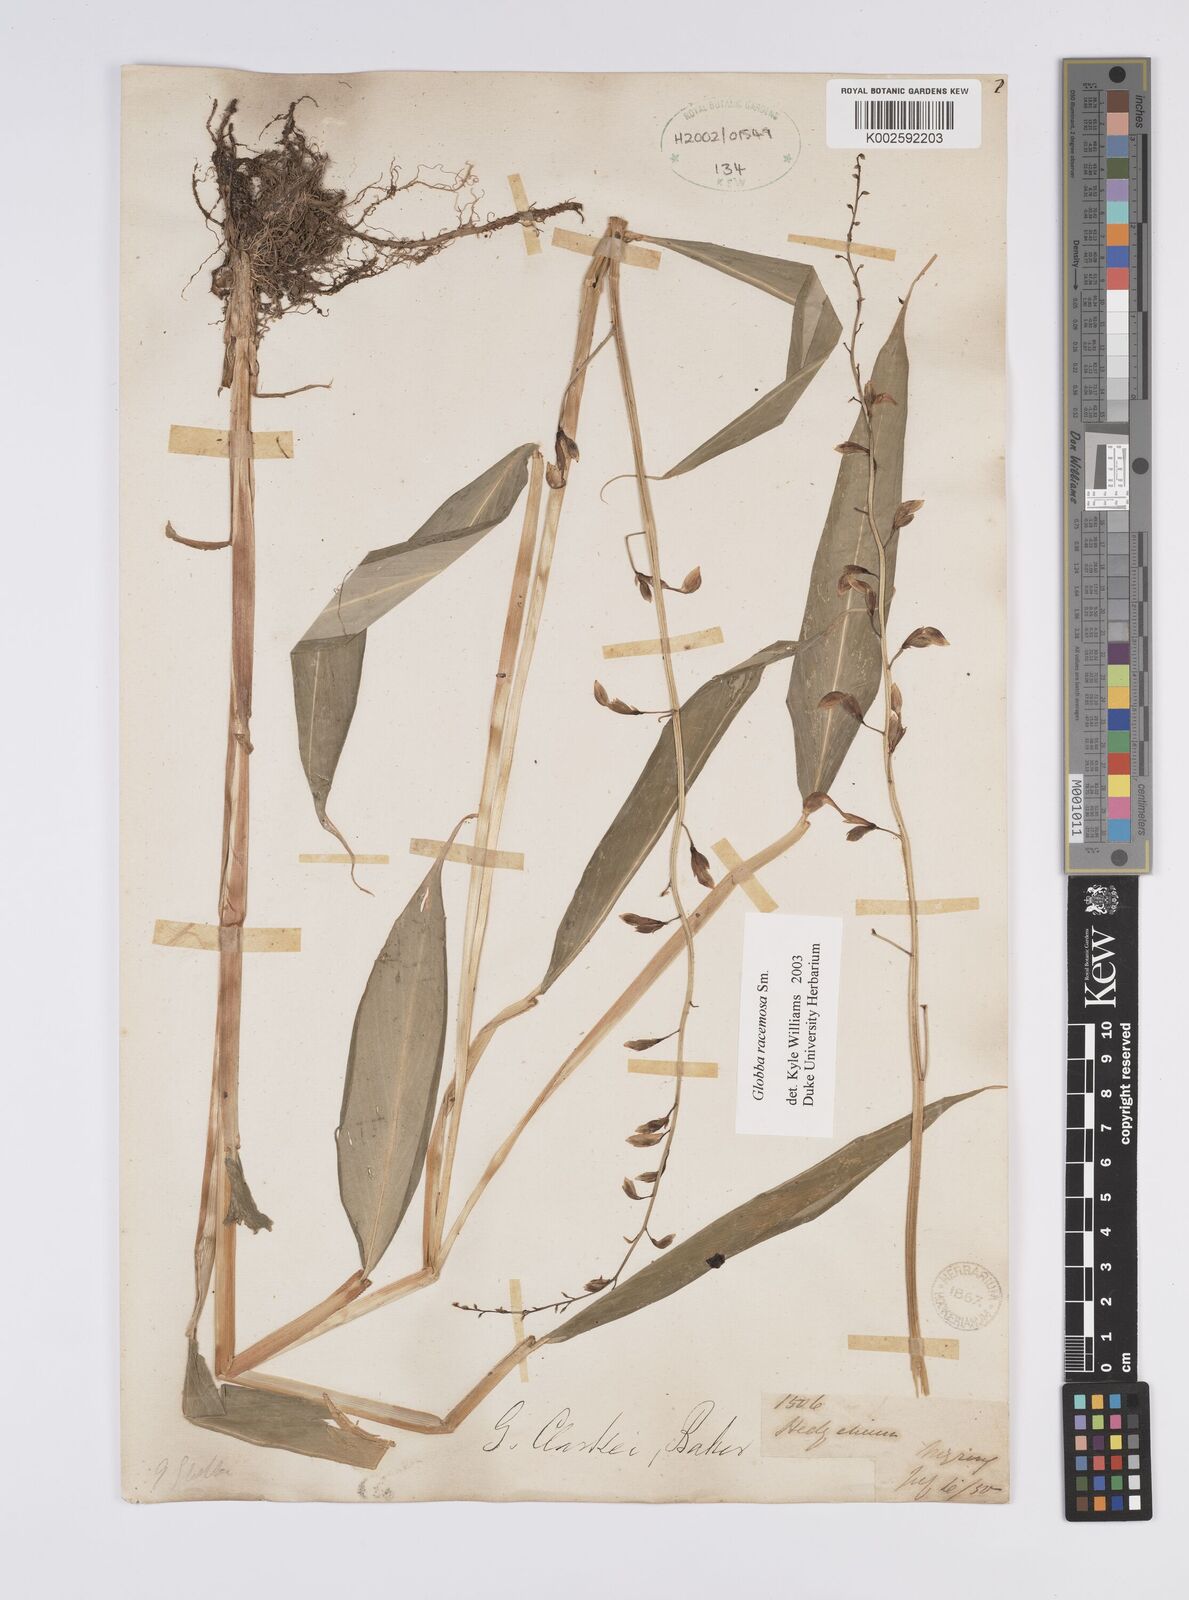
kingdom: Plantae
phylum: Tracheophyta
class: Liliopsida
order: Zingiberales
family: Zingiberaceae
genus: Globba
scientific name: Globba racemosa
